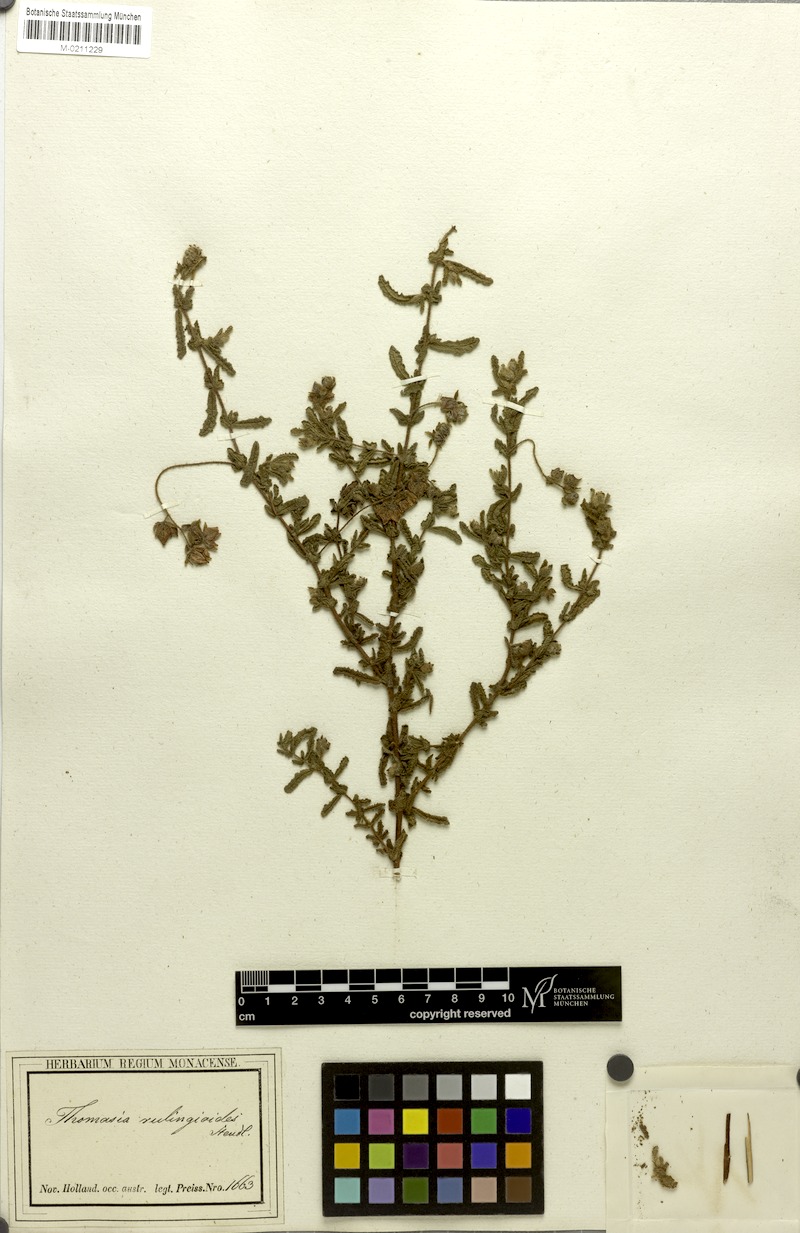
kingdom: Plantae
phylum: Tracheophyta
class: Magnoliopsida
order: Malvales
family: Malvaceae
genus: Thomasia
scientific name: Thomasia rulingioides
